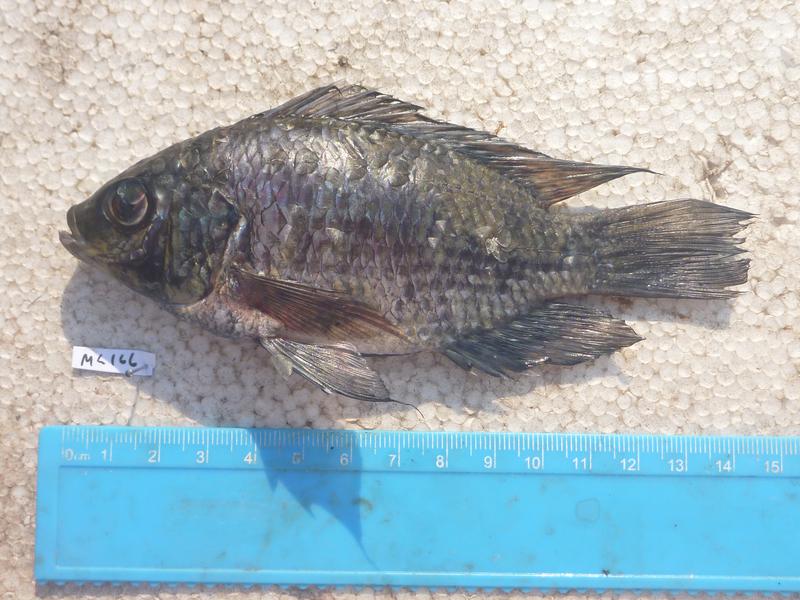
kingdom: Animalia
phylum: Chordata
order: Perciformes
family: Cichlidae
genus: Oreochromis
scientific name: Oreochromis leucostictus
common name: Blue spotted tilapia
